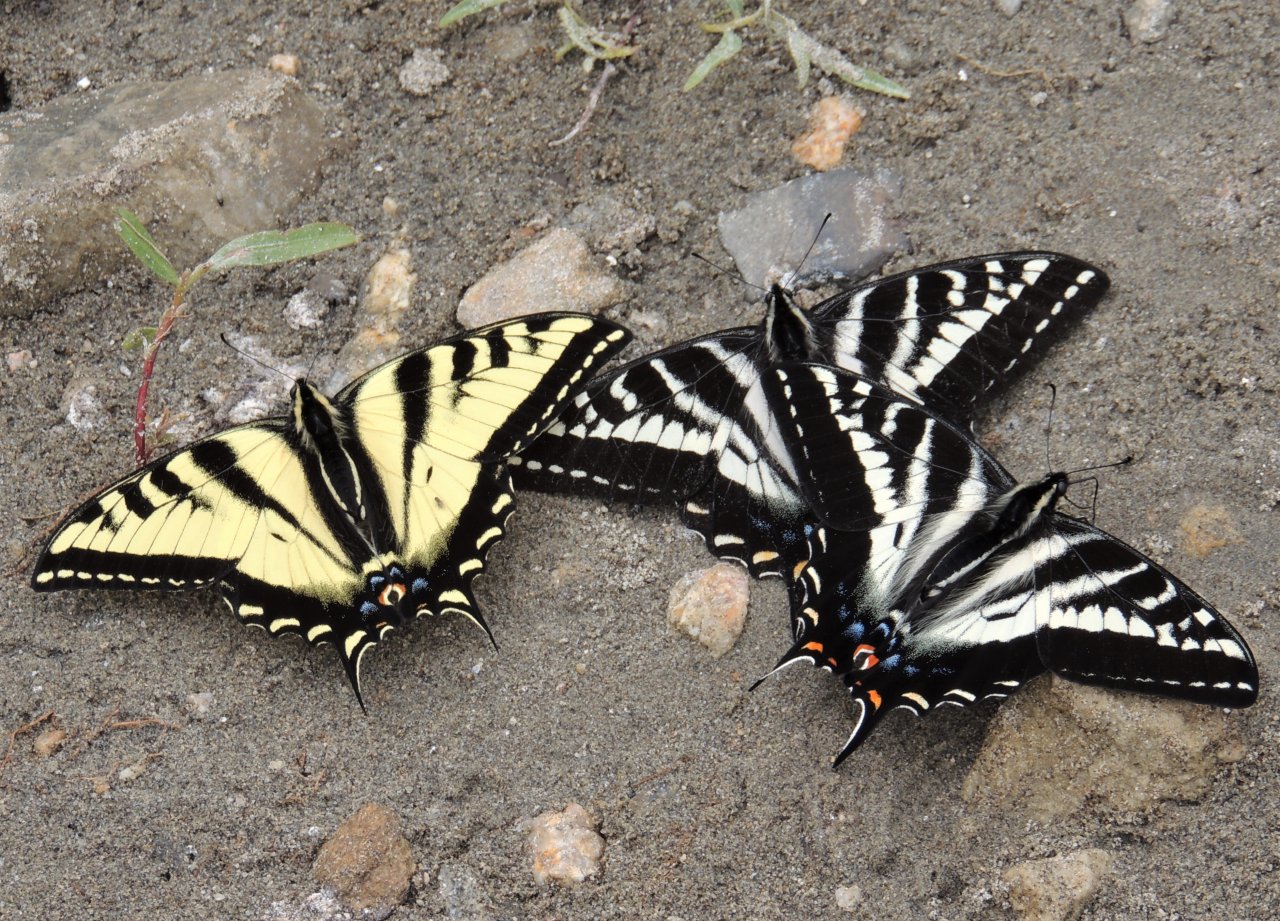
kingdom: Animalia
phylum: Arthropoda
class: Insecta
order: Lepidoptera
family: Papilionidae
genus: Pterourus
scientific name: Pterourus rutulus
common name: Western Tiger Swallowtail
